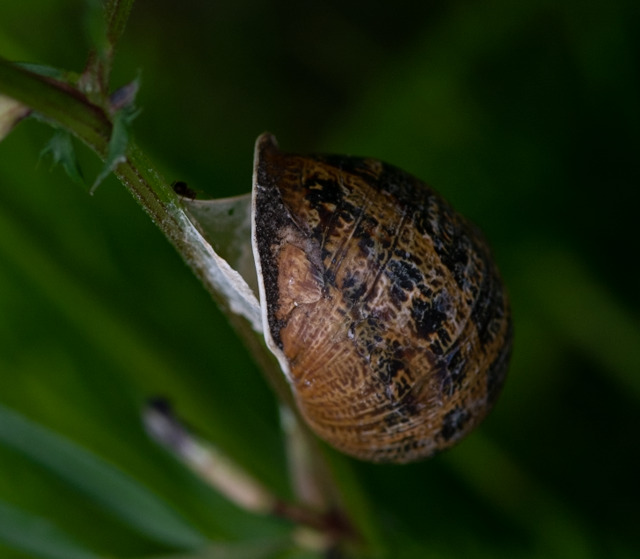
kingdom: Animalia
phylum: Mollusca
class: Gastropoda
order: Stylommatophora
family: Helicidae
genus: Cornu
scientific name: Cornu aspersum
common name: Plettet voldsnegl
